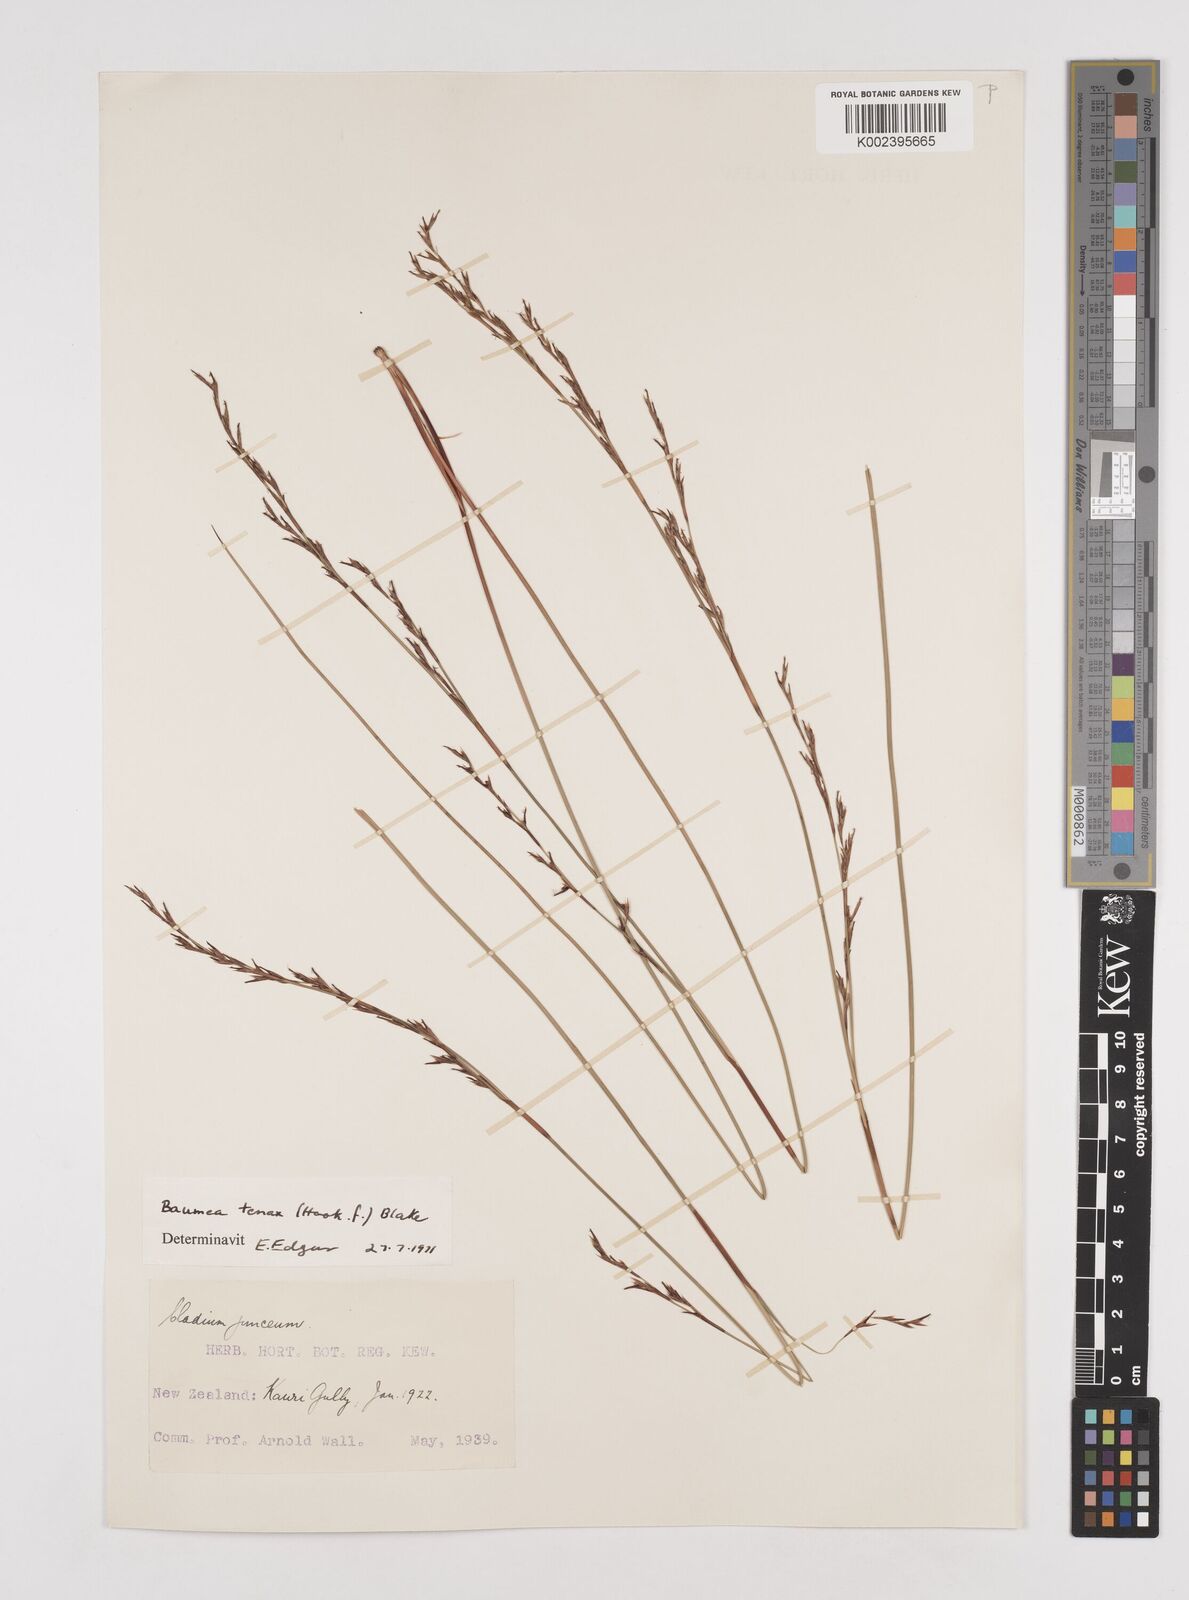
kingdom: Plantae
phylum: Tracheophyta
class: Liliopsida
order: Poales
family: Cyperaceae
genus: Machaerina
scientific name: Machaerina gunnii
